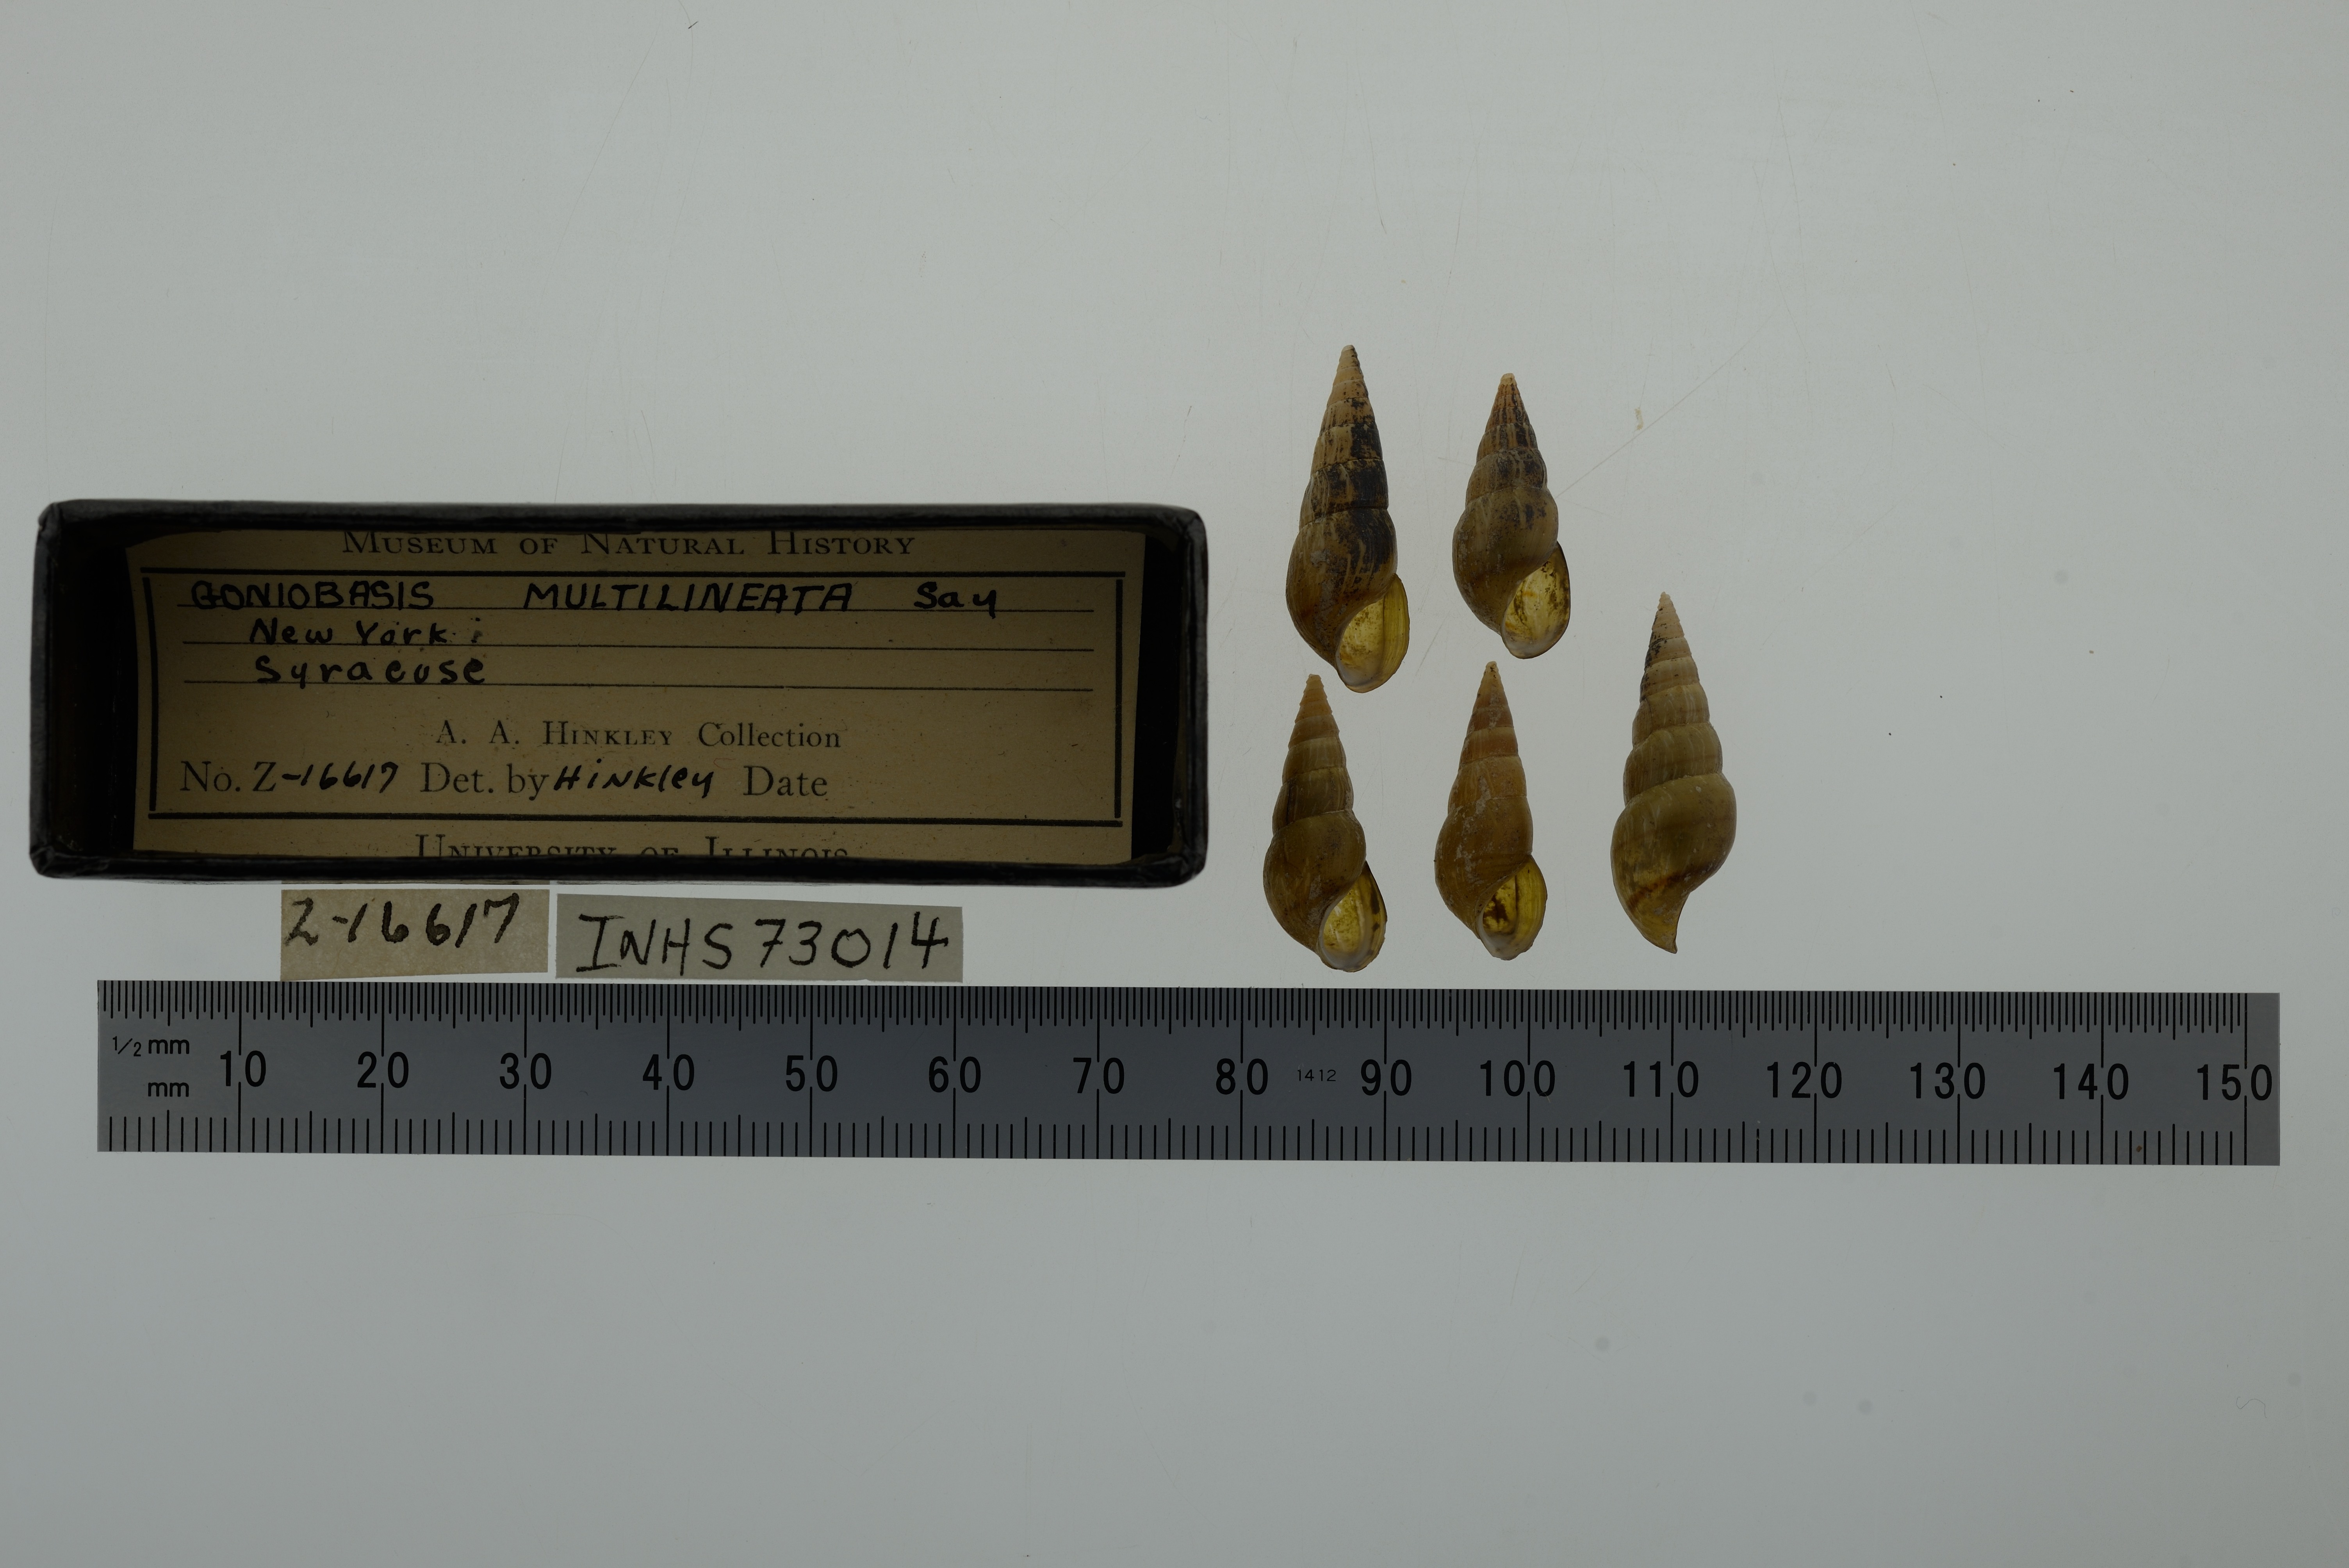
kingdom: Animalia
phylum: Mollusca
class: Gastropoda
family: Pleuroceridae
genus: Elimia
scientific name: Elimia virginica
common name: Piedmont elimia
